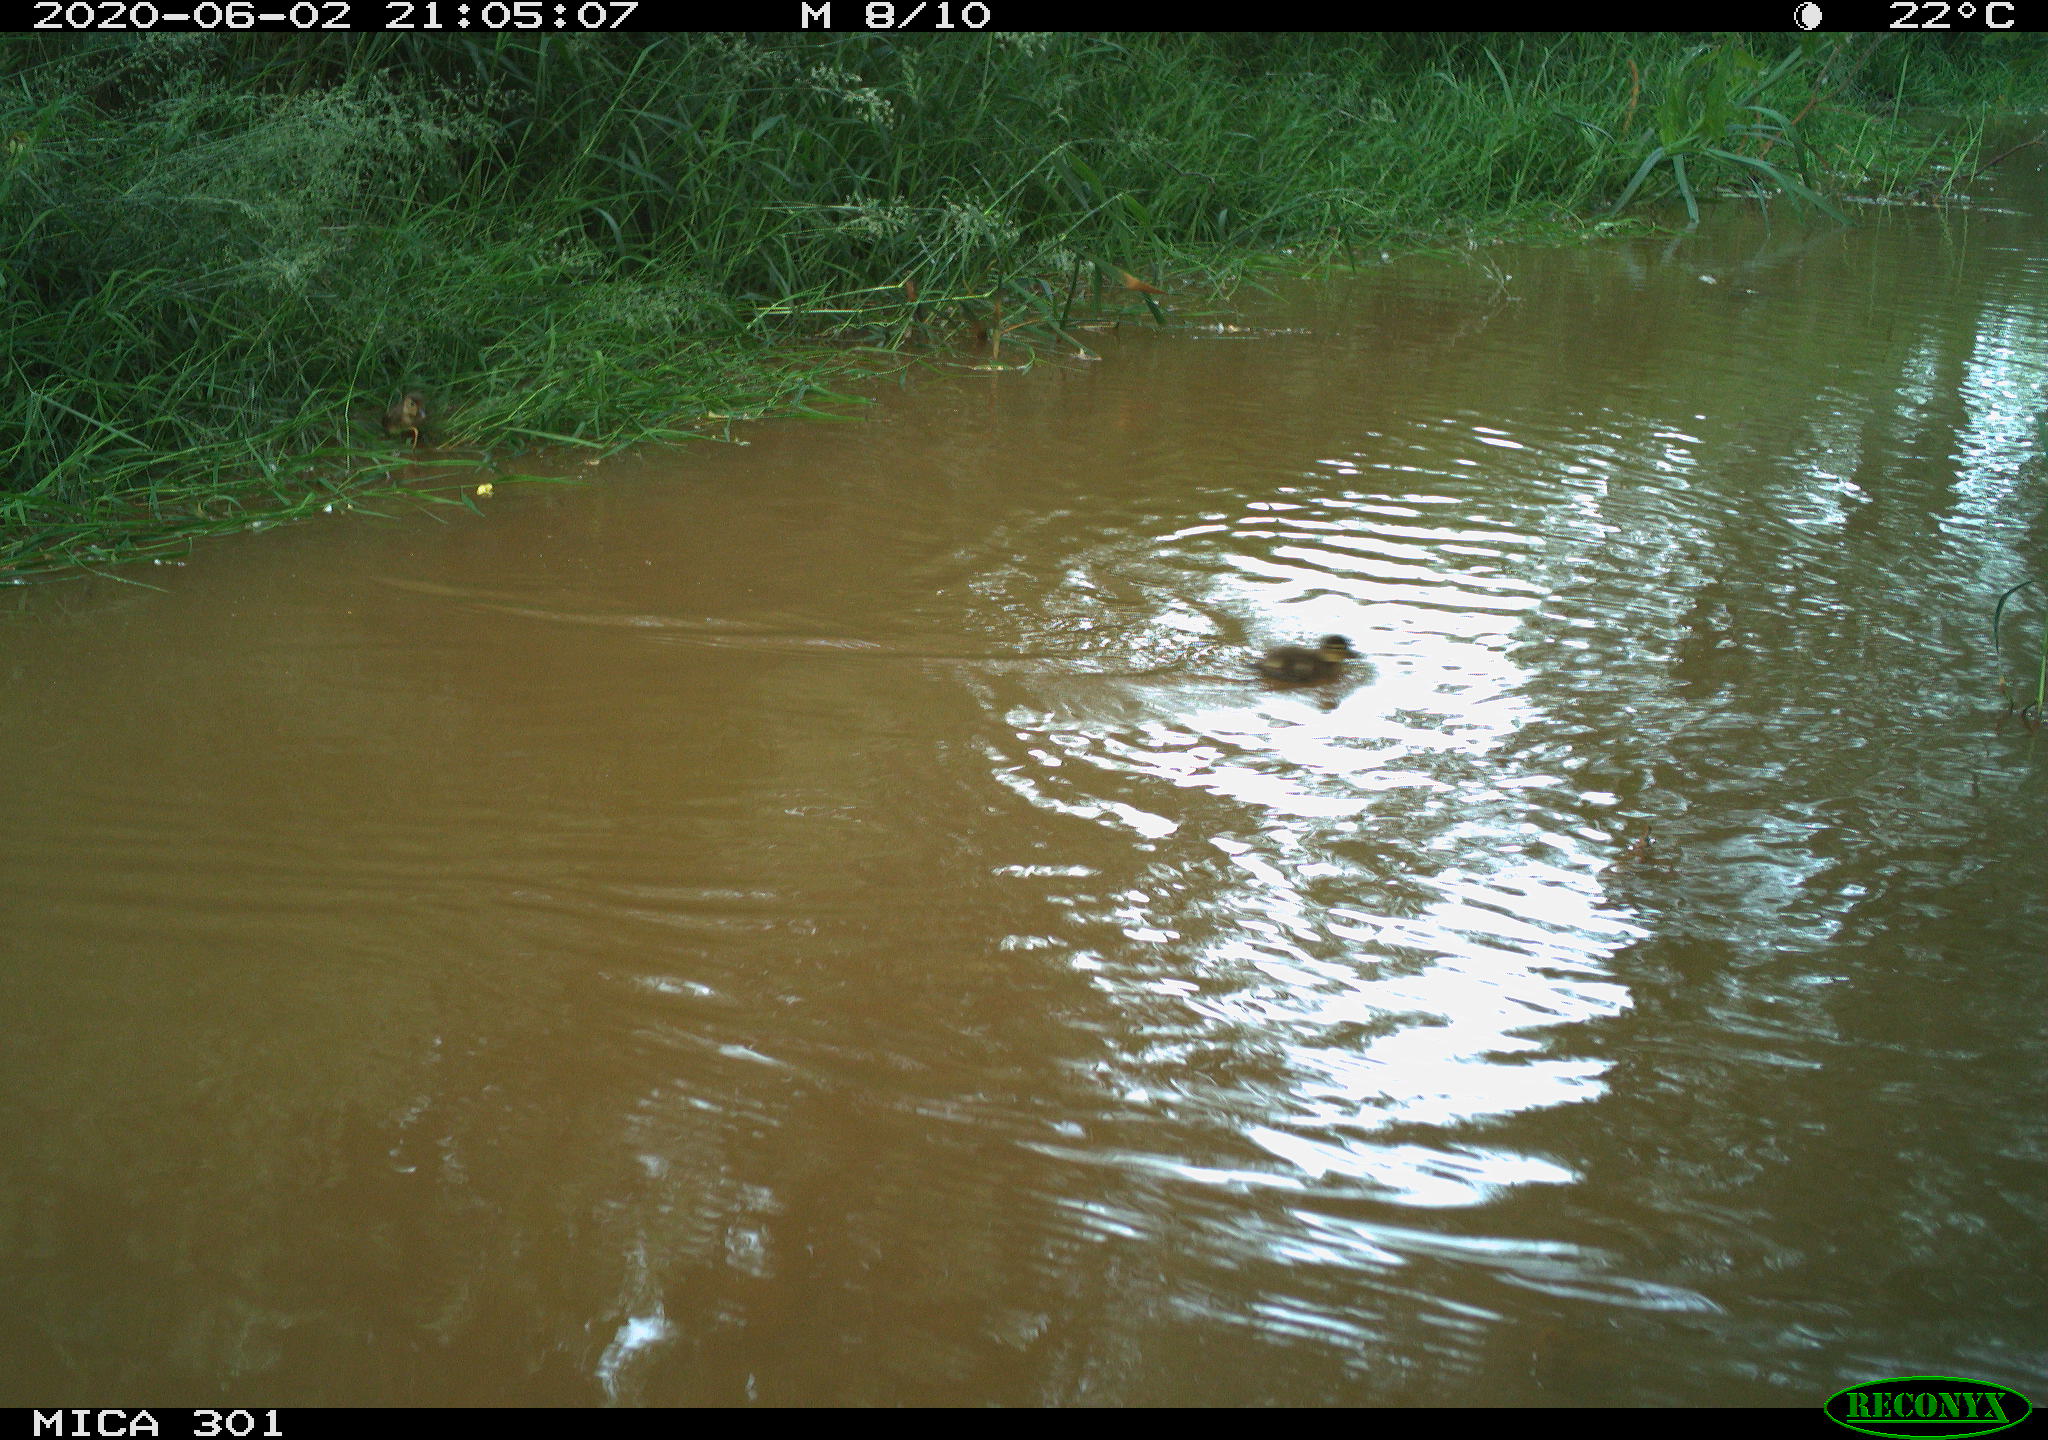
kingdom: Animalia
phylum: Chordata
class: Aves
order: Anseriformes
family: Anatidae
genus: Aix
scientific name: Aix galericulata
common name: Mandarin duck
